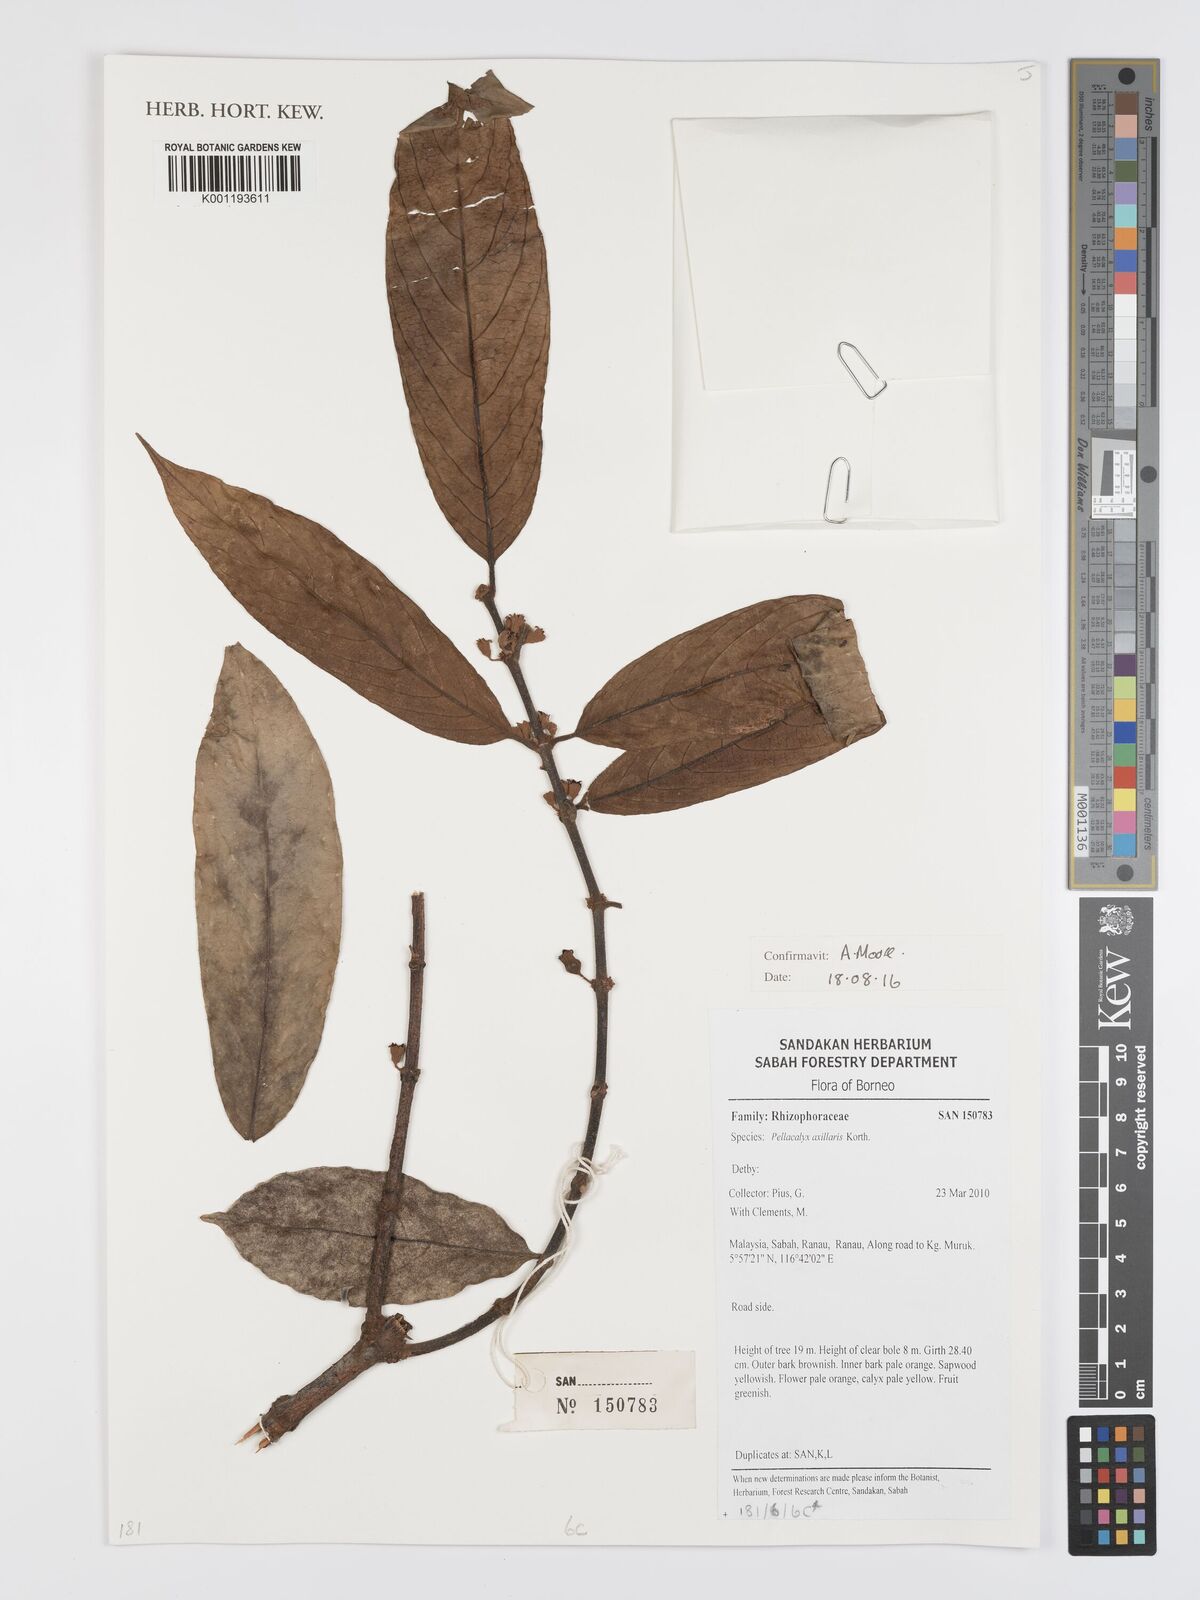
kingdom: Plantae
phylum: Tracheophyta
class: Magnoliopsida
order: Malpighiales
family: Rhizophoraceae
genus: Pellacalyx
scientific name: Pellacalyx axillaris
